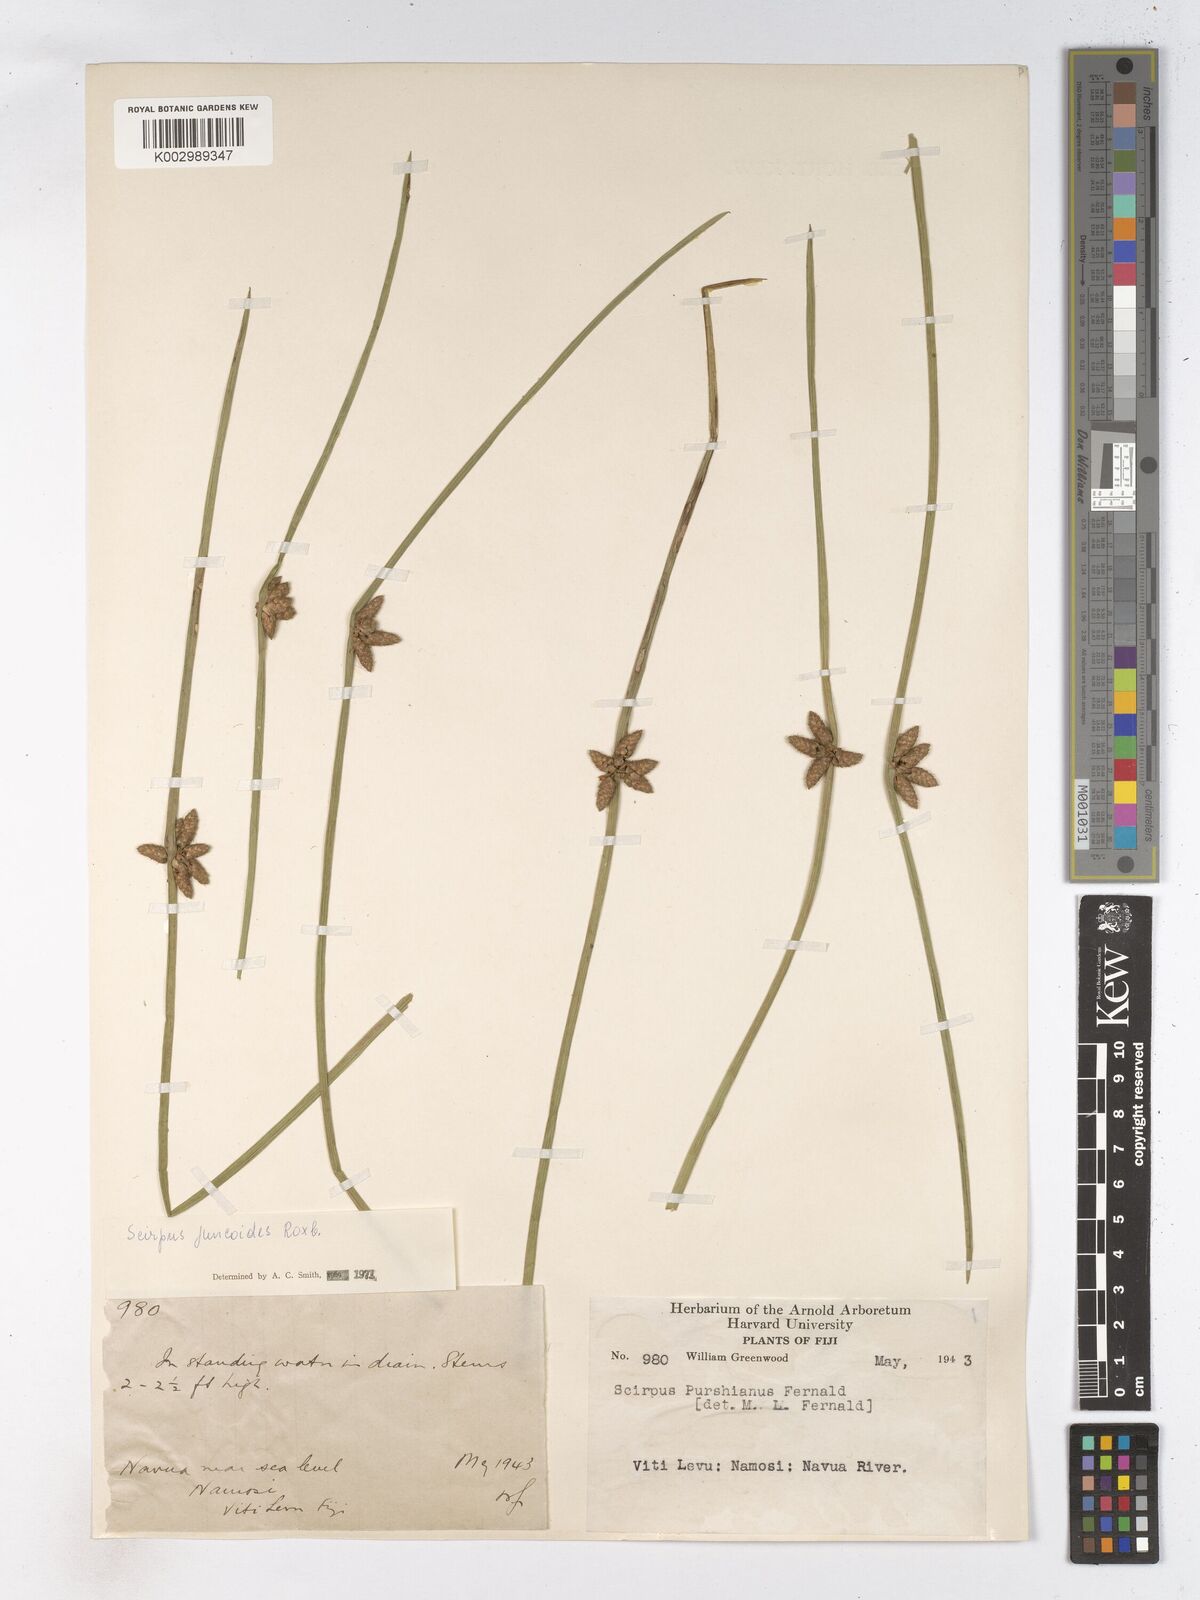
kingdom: Plantae
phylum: Tracheophyta
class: Liliopsida
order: Poales
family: Cyperaceae
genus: Schoenoplectiella
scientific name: Schoenoplectiella juncoides
